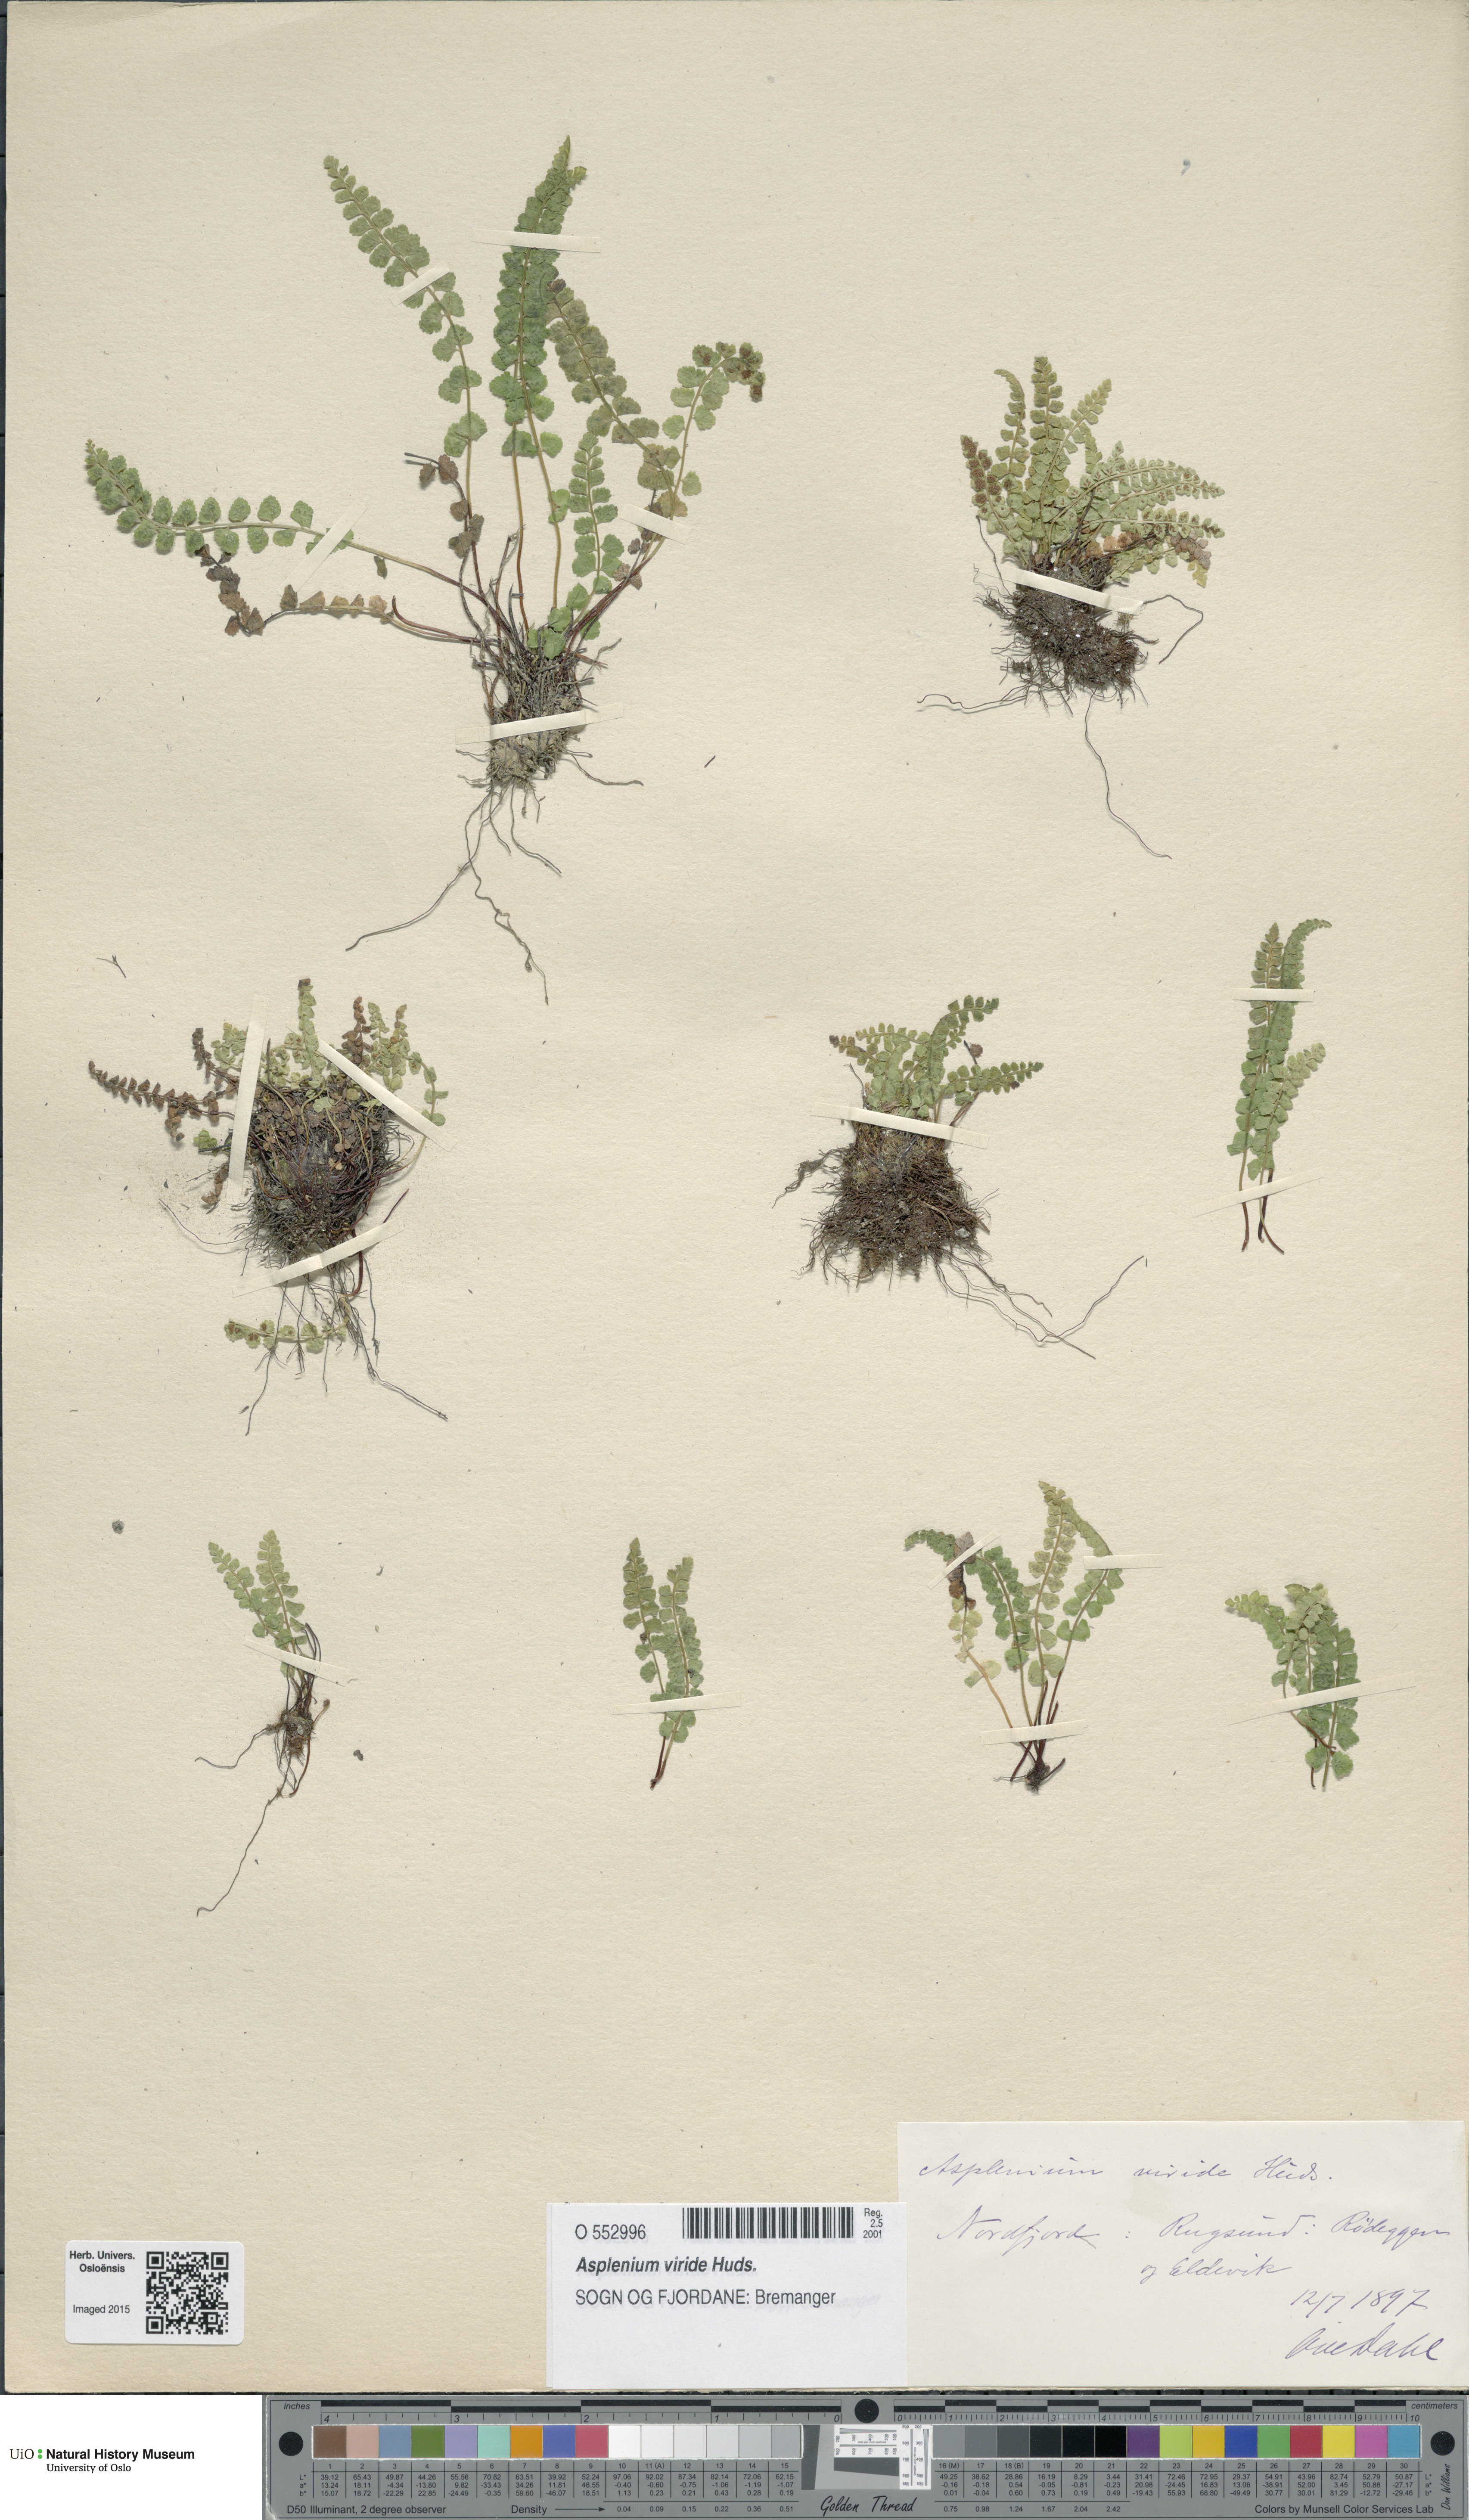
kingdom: Plantae
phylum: Tracheophyta
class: Polypodiopsida
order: Polypodiales
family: Aspleniaceae
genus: Asplenium
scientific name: Asplenium viride
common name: Green spleenwort
